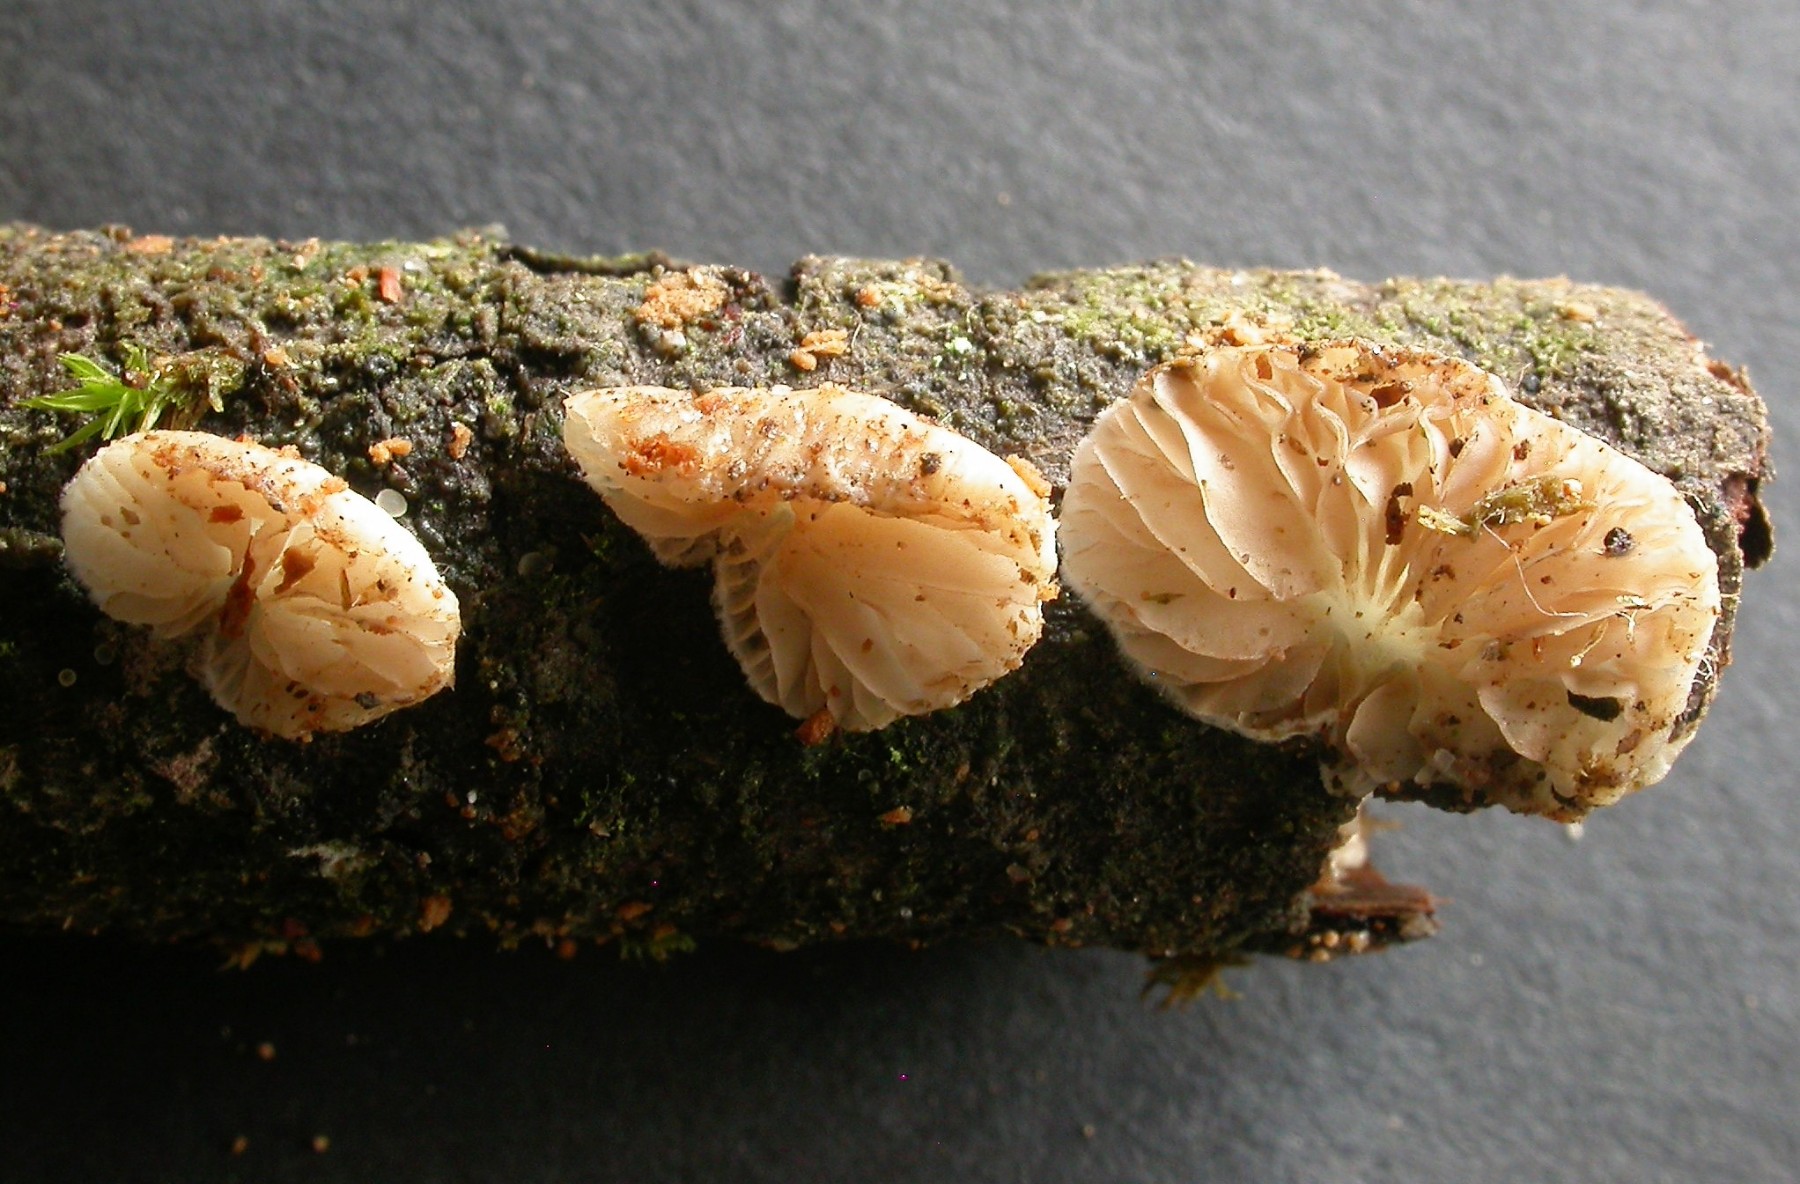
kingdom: Fungi
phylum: Basidiomycota
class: Agaricomycetes
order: Agaricales
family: Crepidotaceae
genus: Crepidotus
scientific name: Crepidotus cesatii
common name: almindelig muslingesvamp
